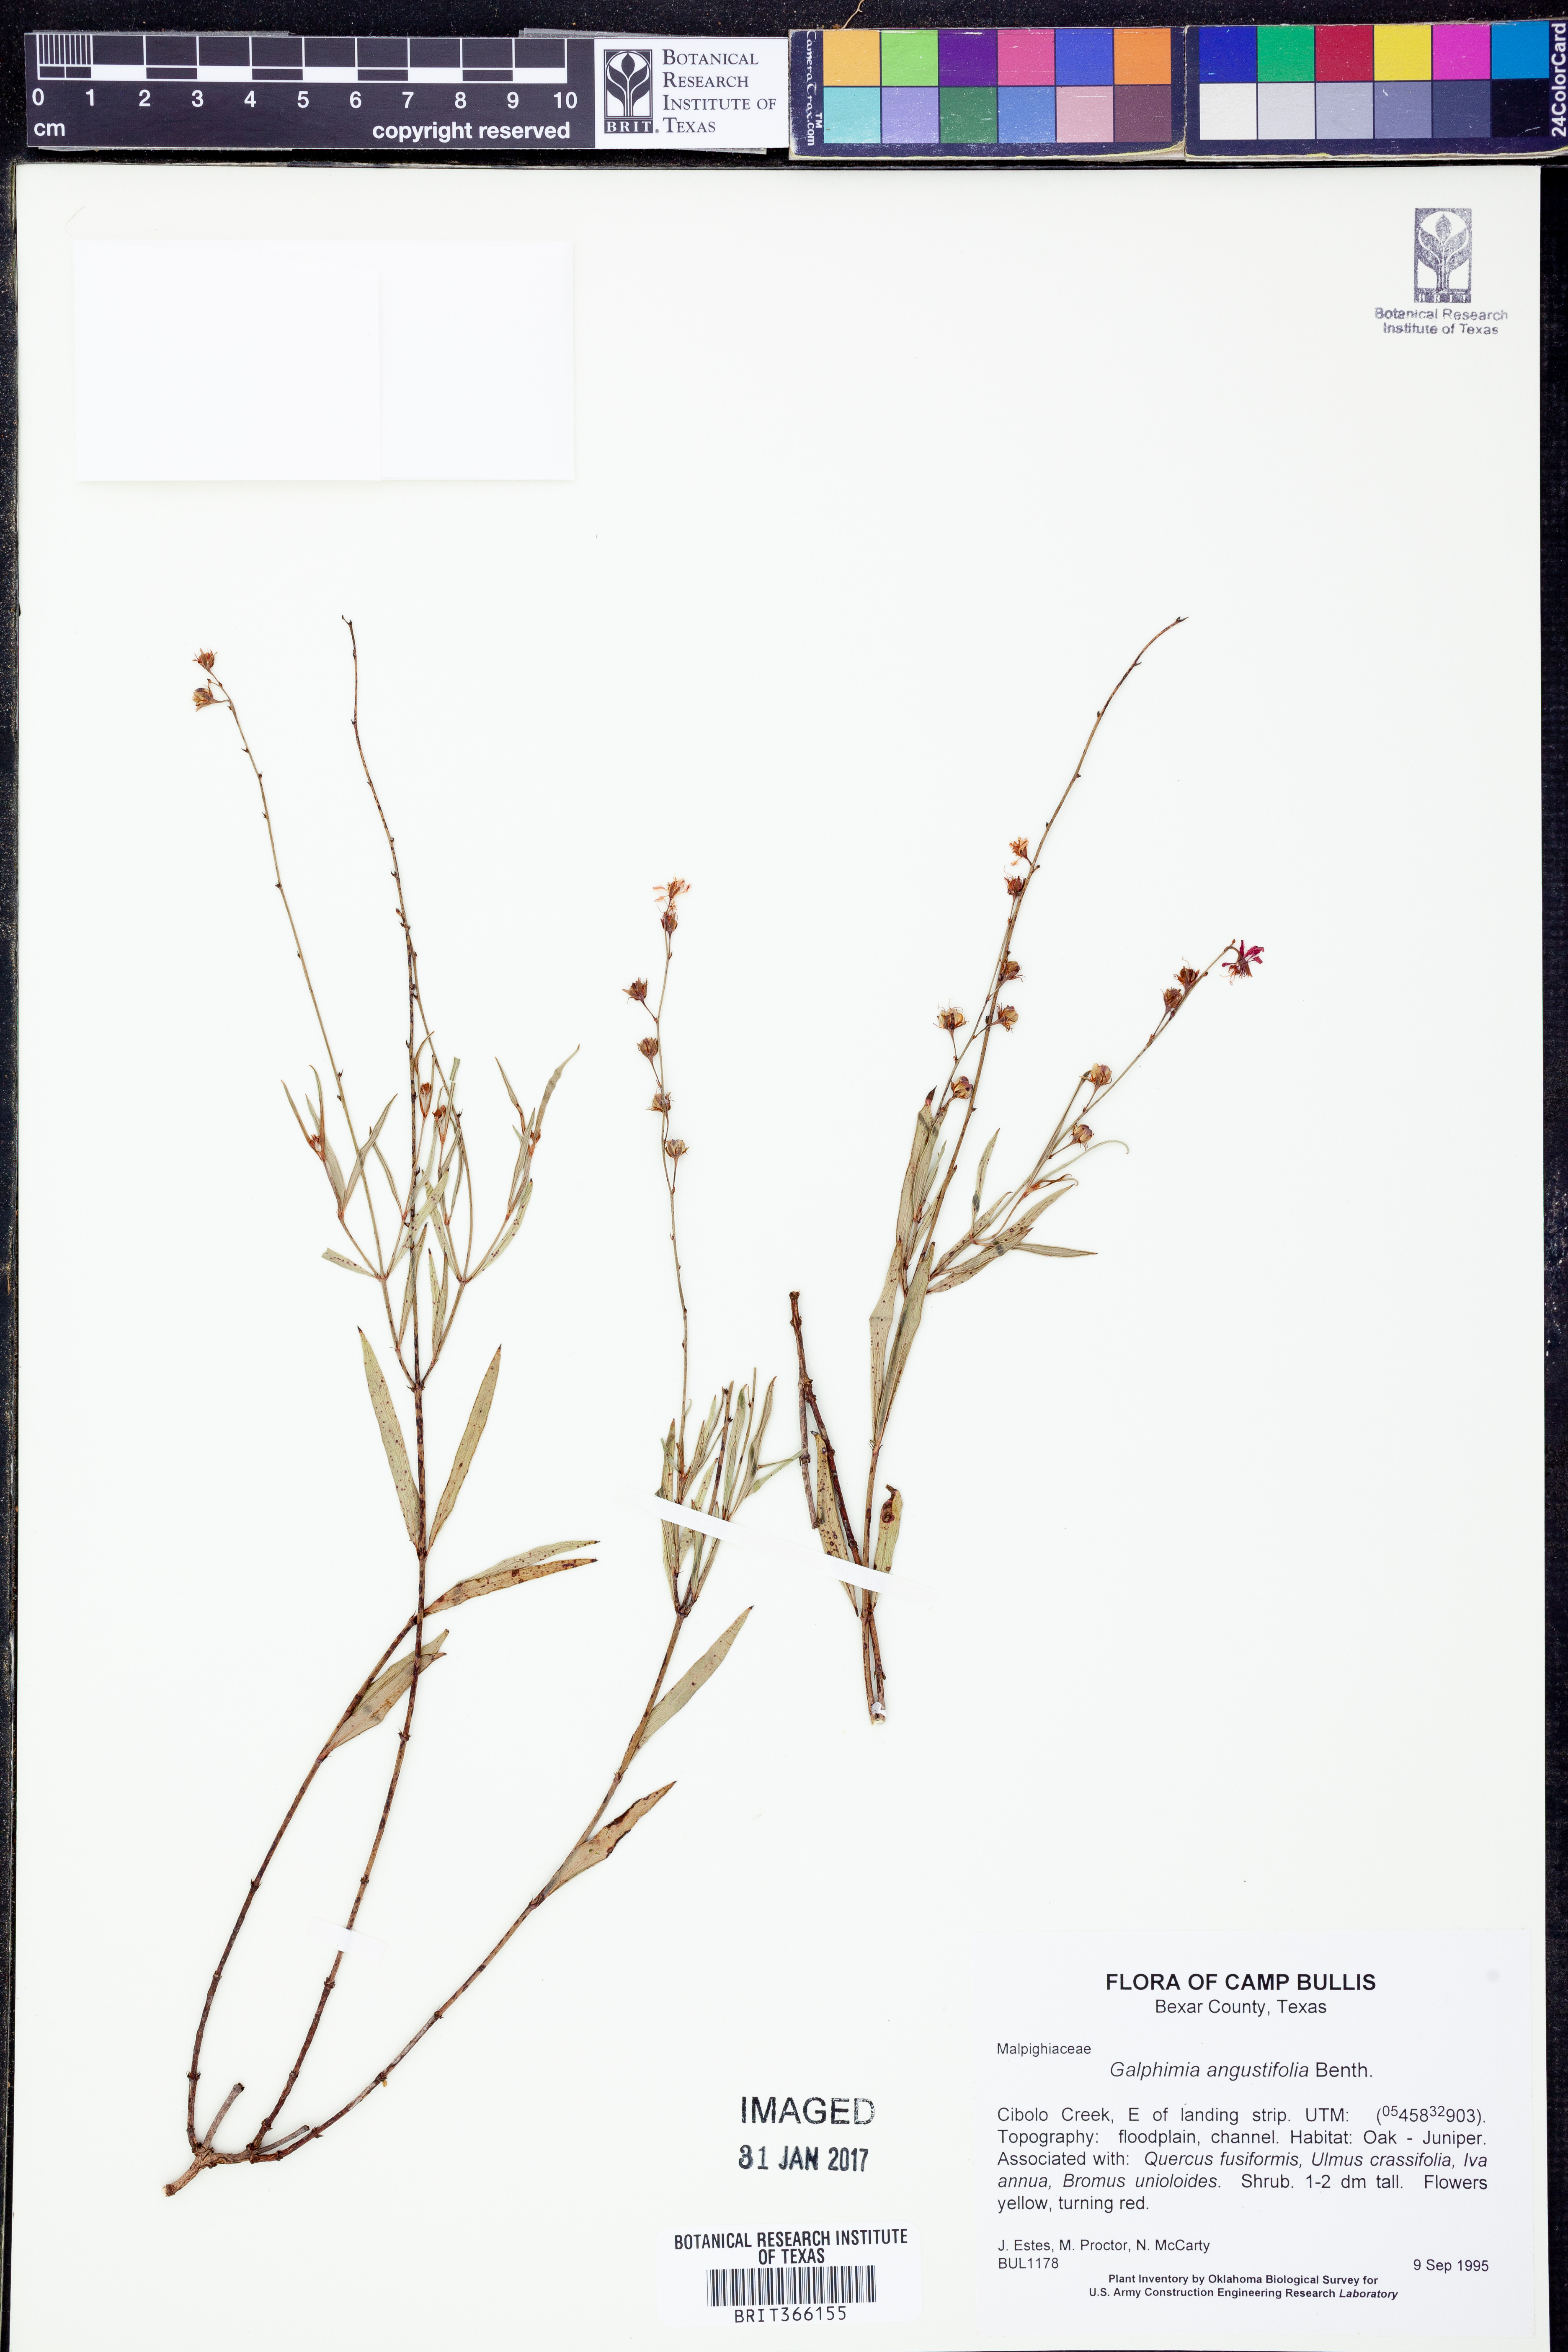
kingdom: Plantae
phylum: Tracheophyta
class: Magnoliopsida
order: Malpighiales
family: Malpighiaceae
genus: Galphimia
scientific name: Galphimia angustifolia
